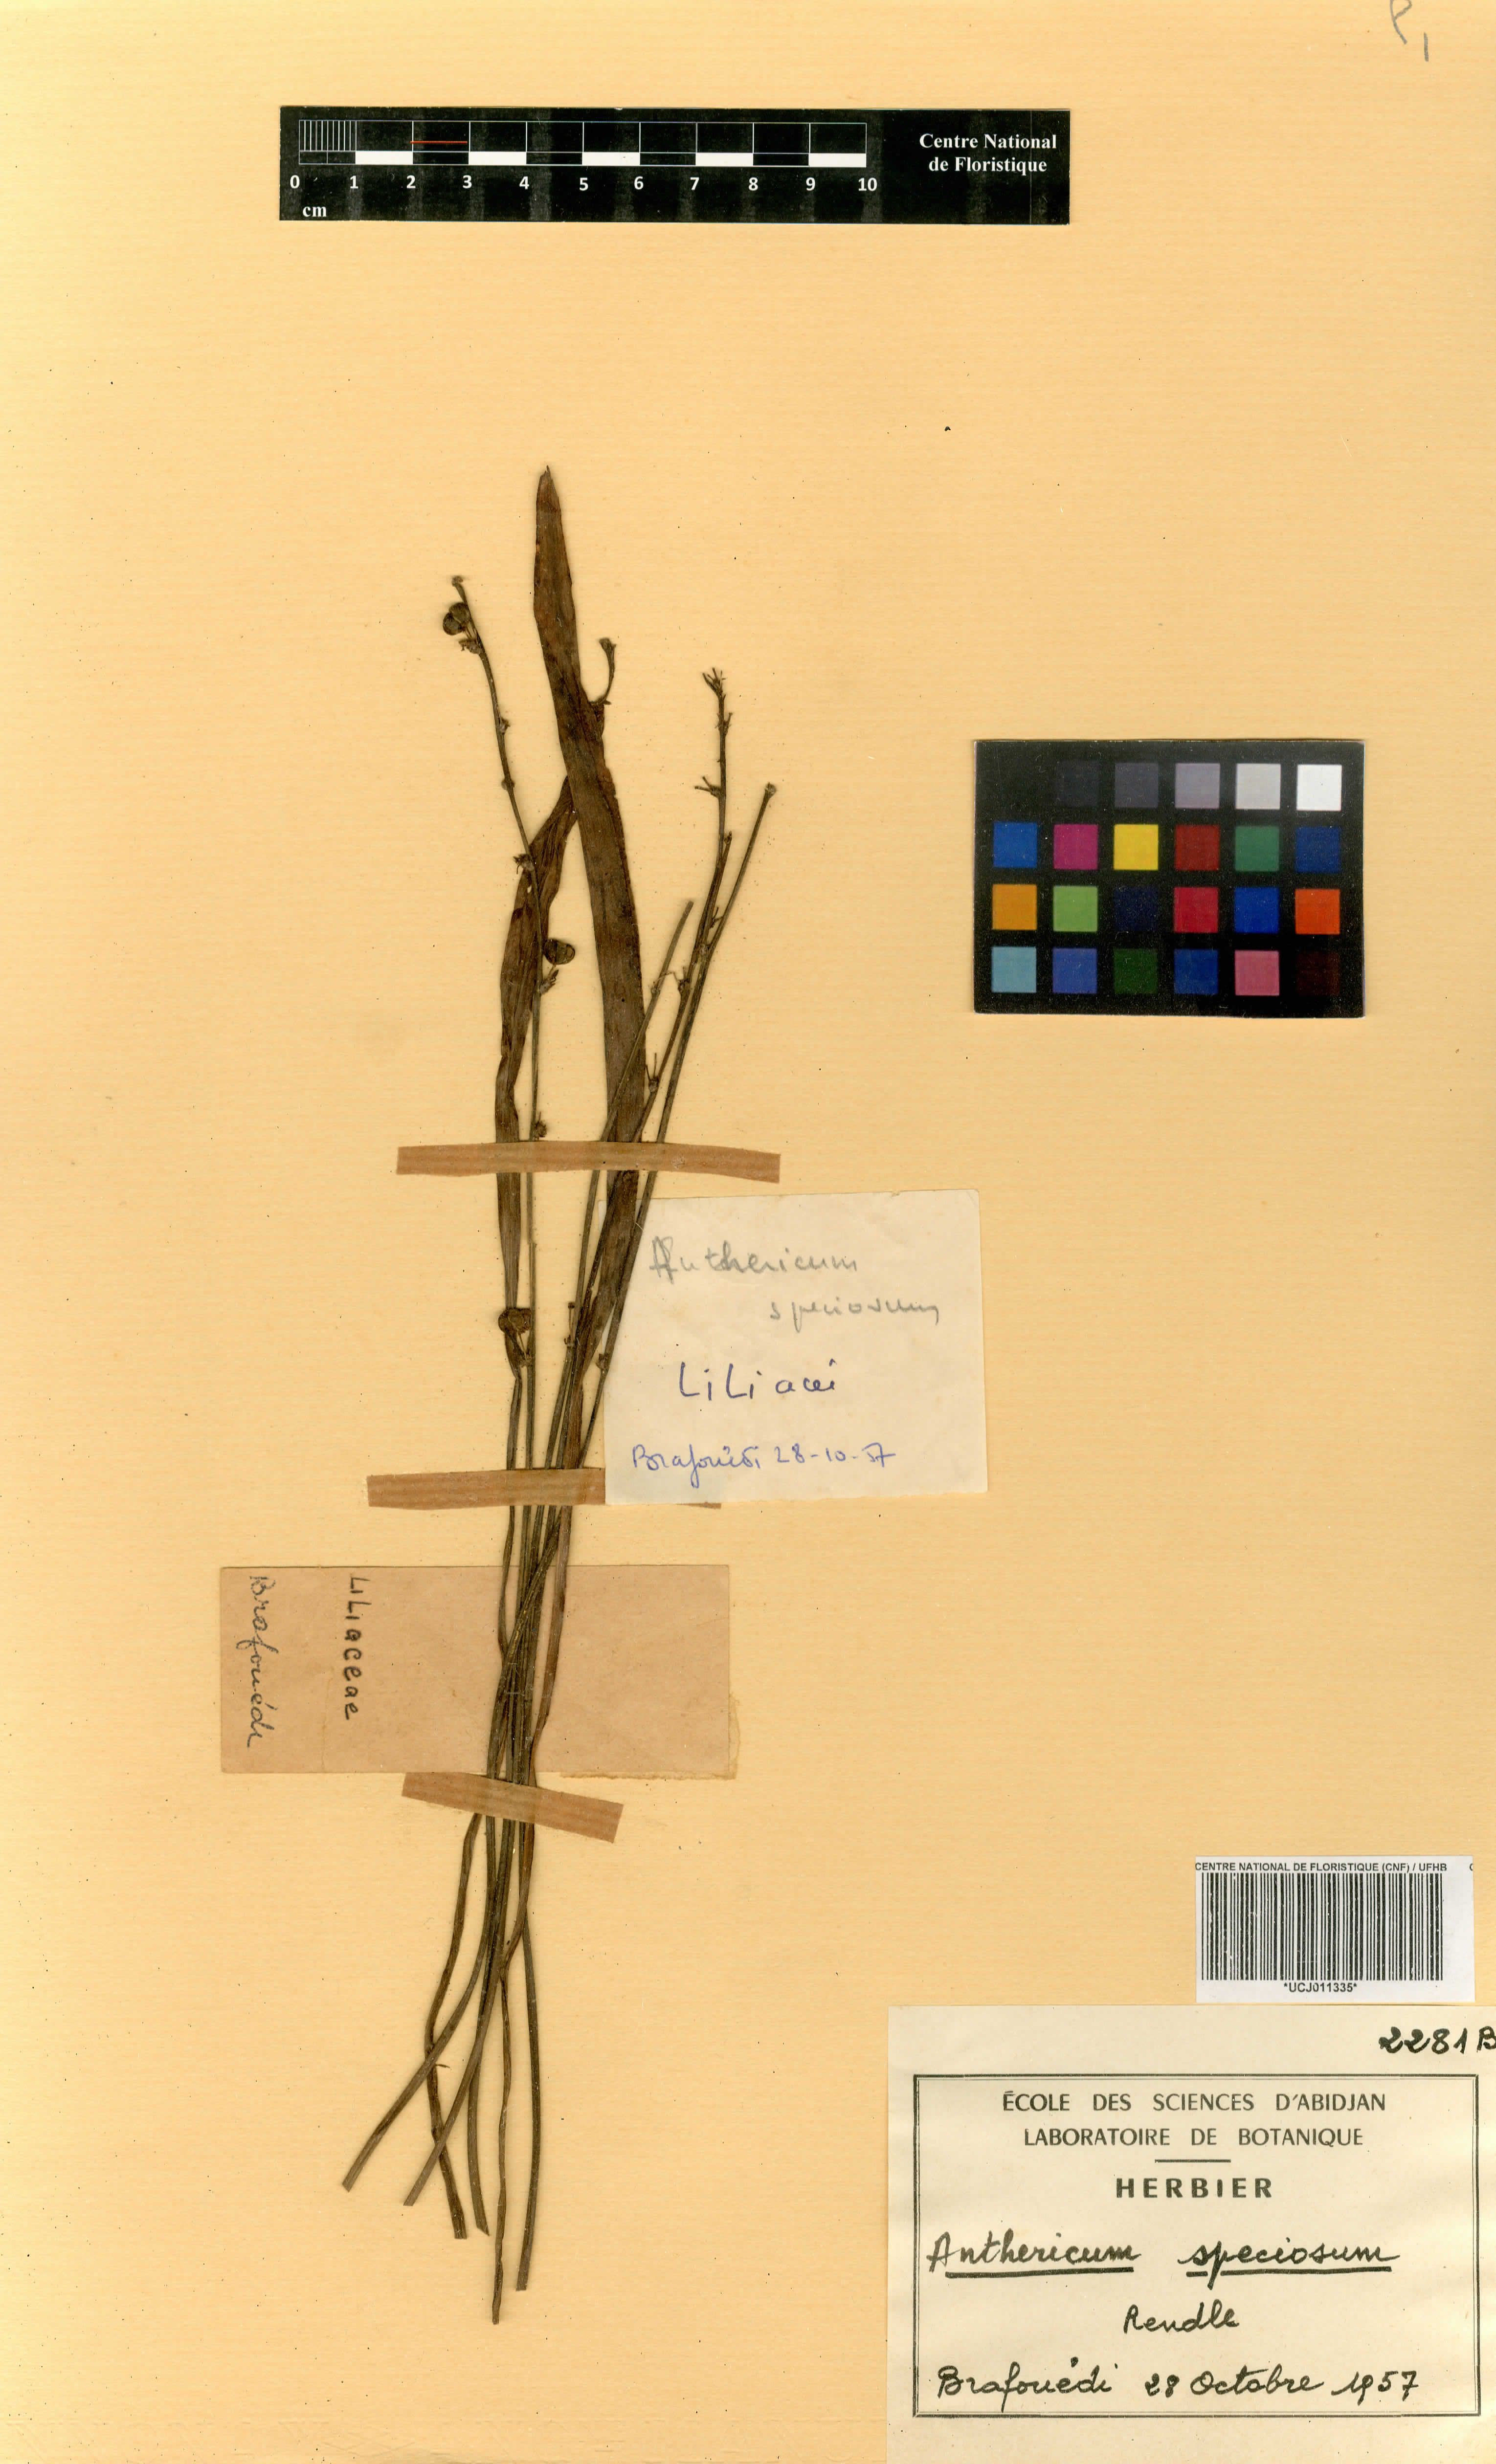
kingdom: Plantae
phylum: Tracheophyta
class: Liliopsida
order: Asparagales
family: Asparagaceae
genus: Chlorophytum
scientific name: Chlorophytum cameronii
